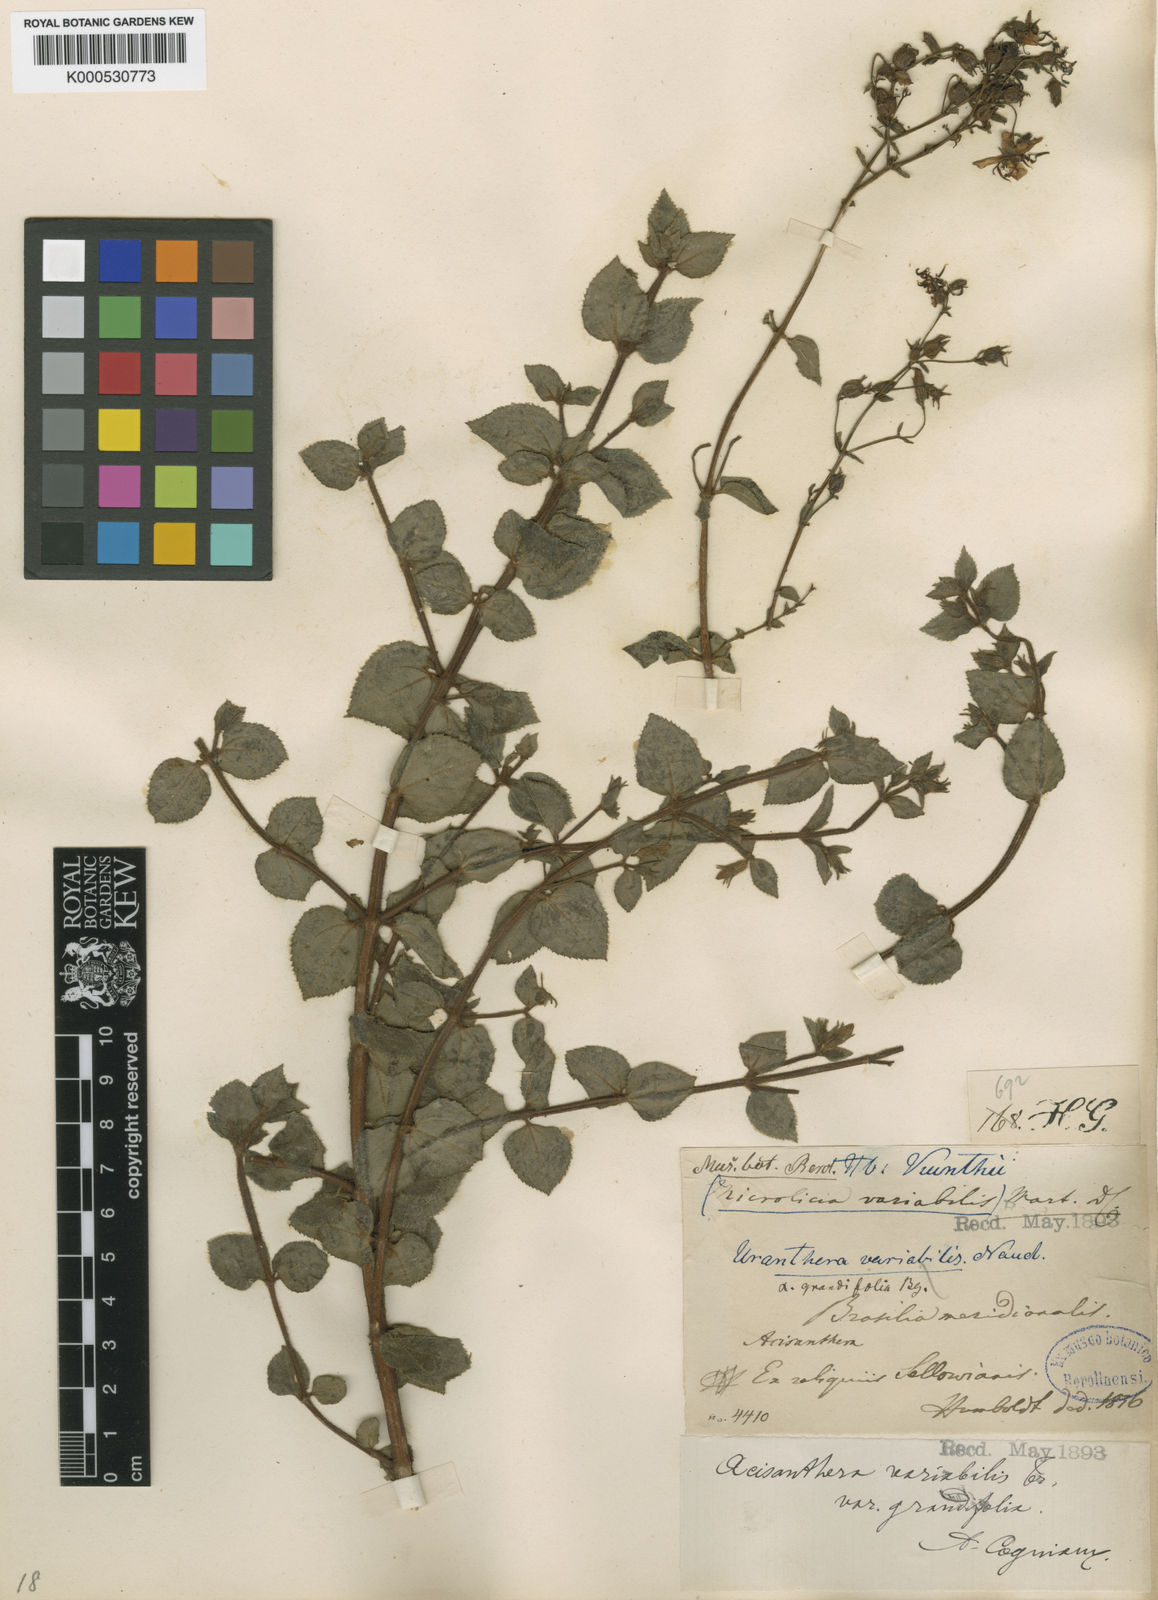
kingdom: Plantae
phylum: Tracheophyta
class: Magnoliopsida
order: Myrtales
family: Melastomataceae
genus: Acisanthera
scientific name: Acisanthera variabilis
